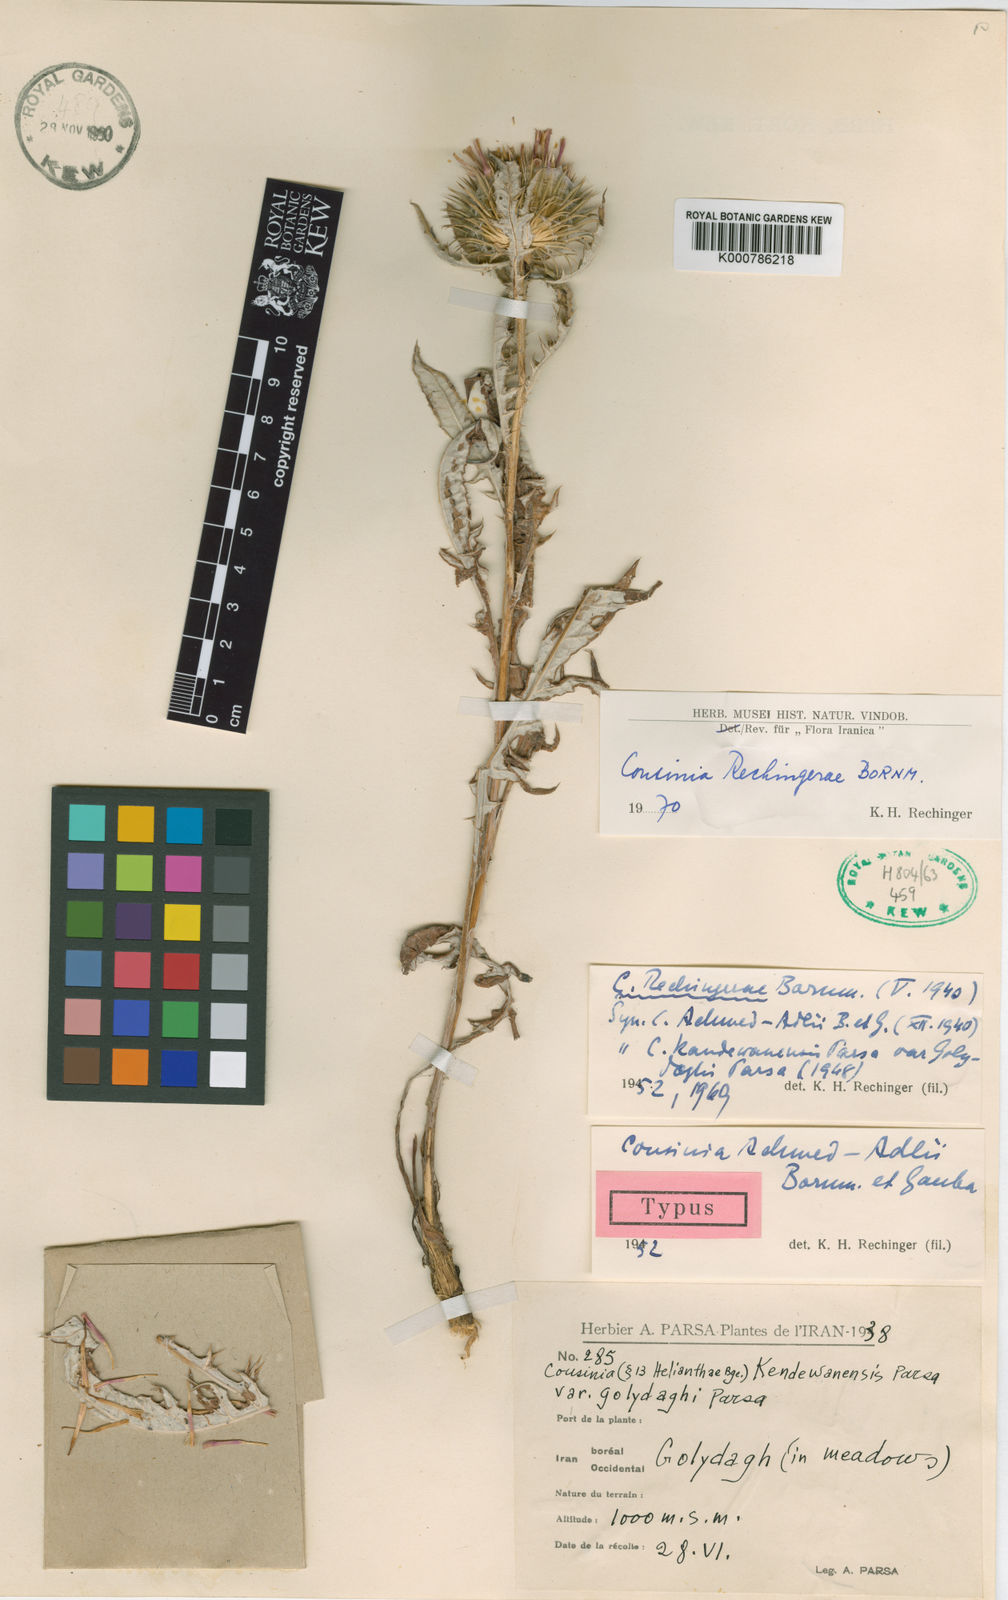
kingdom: Plantae
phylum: Tracheophyta
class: Magnoliopsida
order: Asterales
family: Asteraceae
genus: Cousinia
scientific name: Cousinia rechingerae
